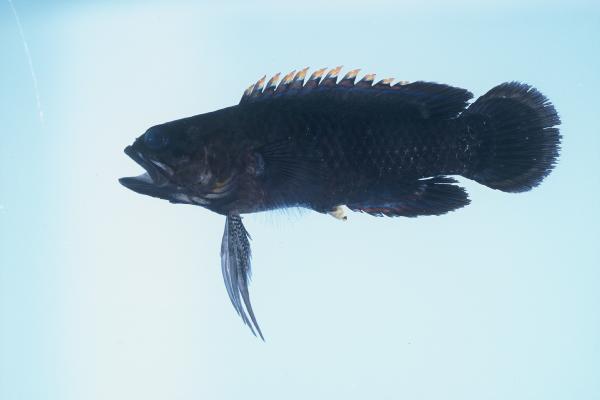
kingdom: Animalia
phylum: Chordata
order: Perciformes
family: Plesiopidae
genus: Plesiops
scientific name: Plesiops coeruleolineatus
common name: Crimsontip longfin
